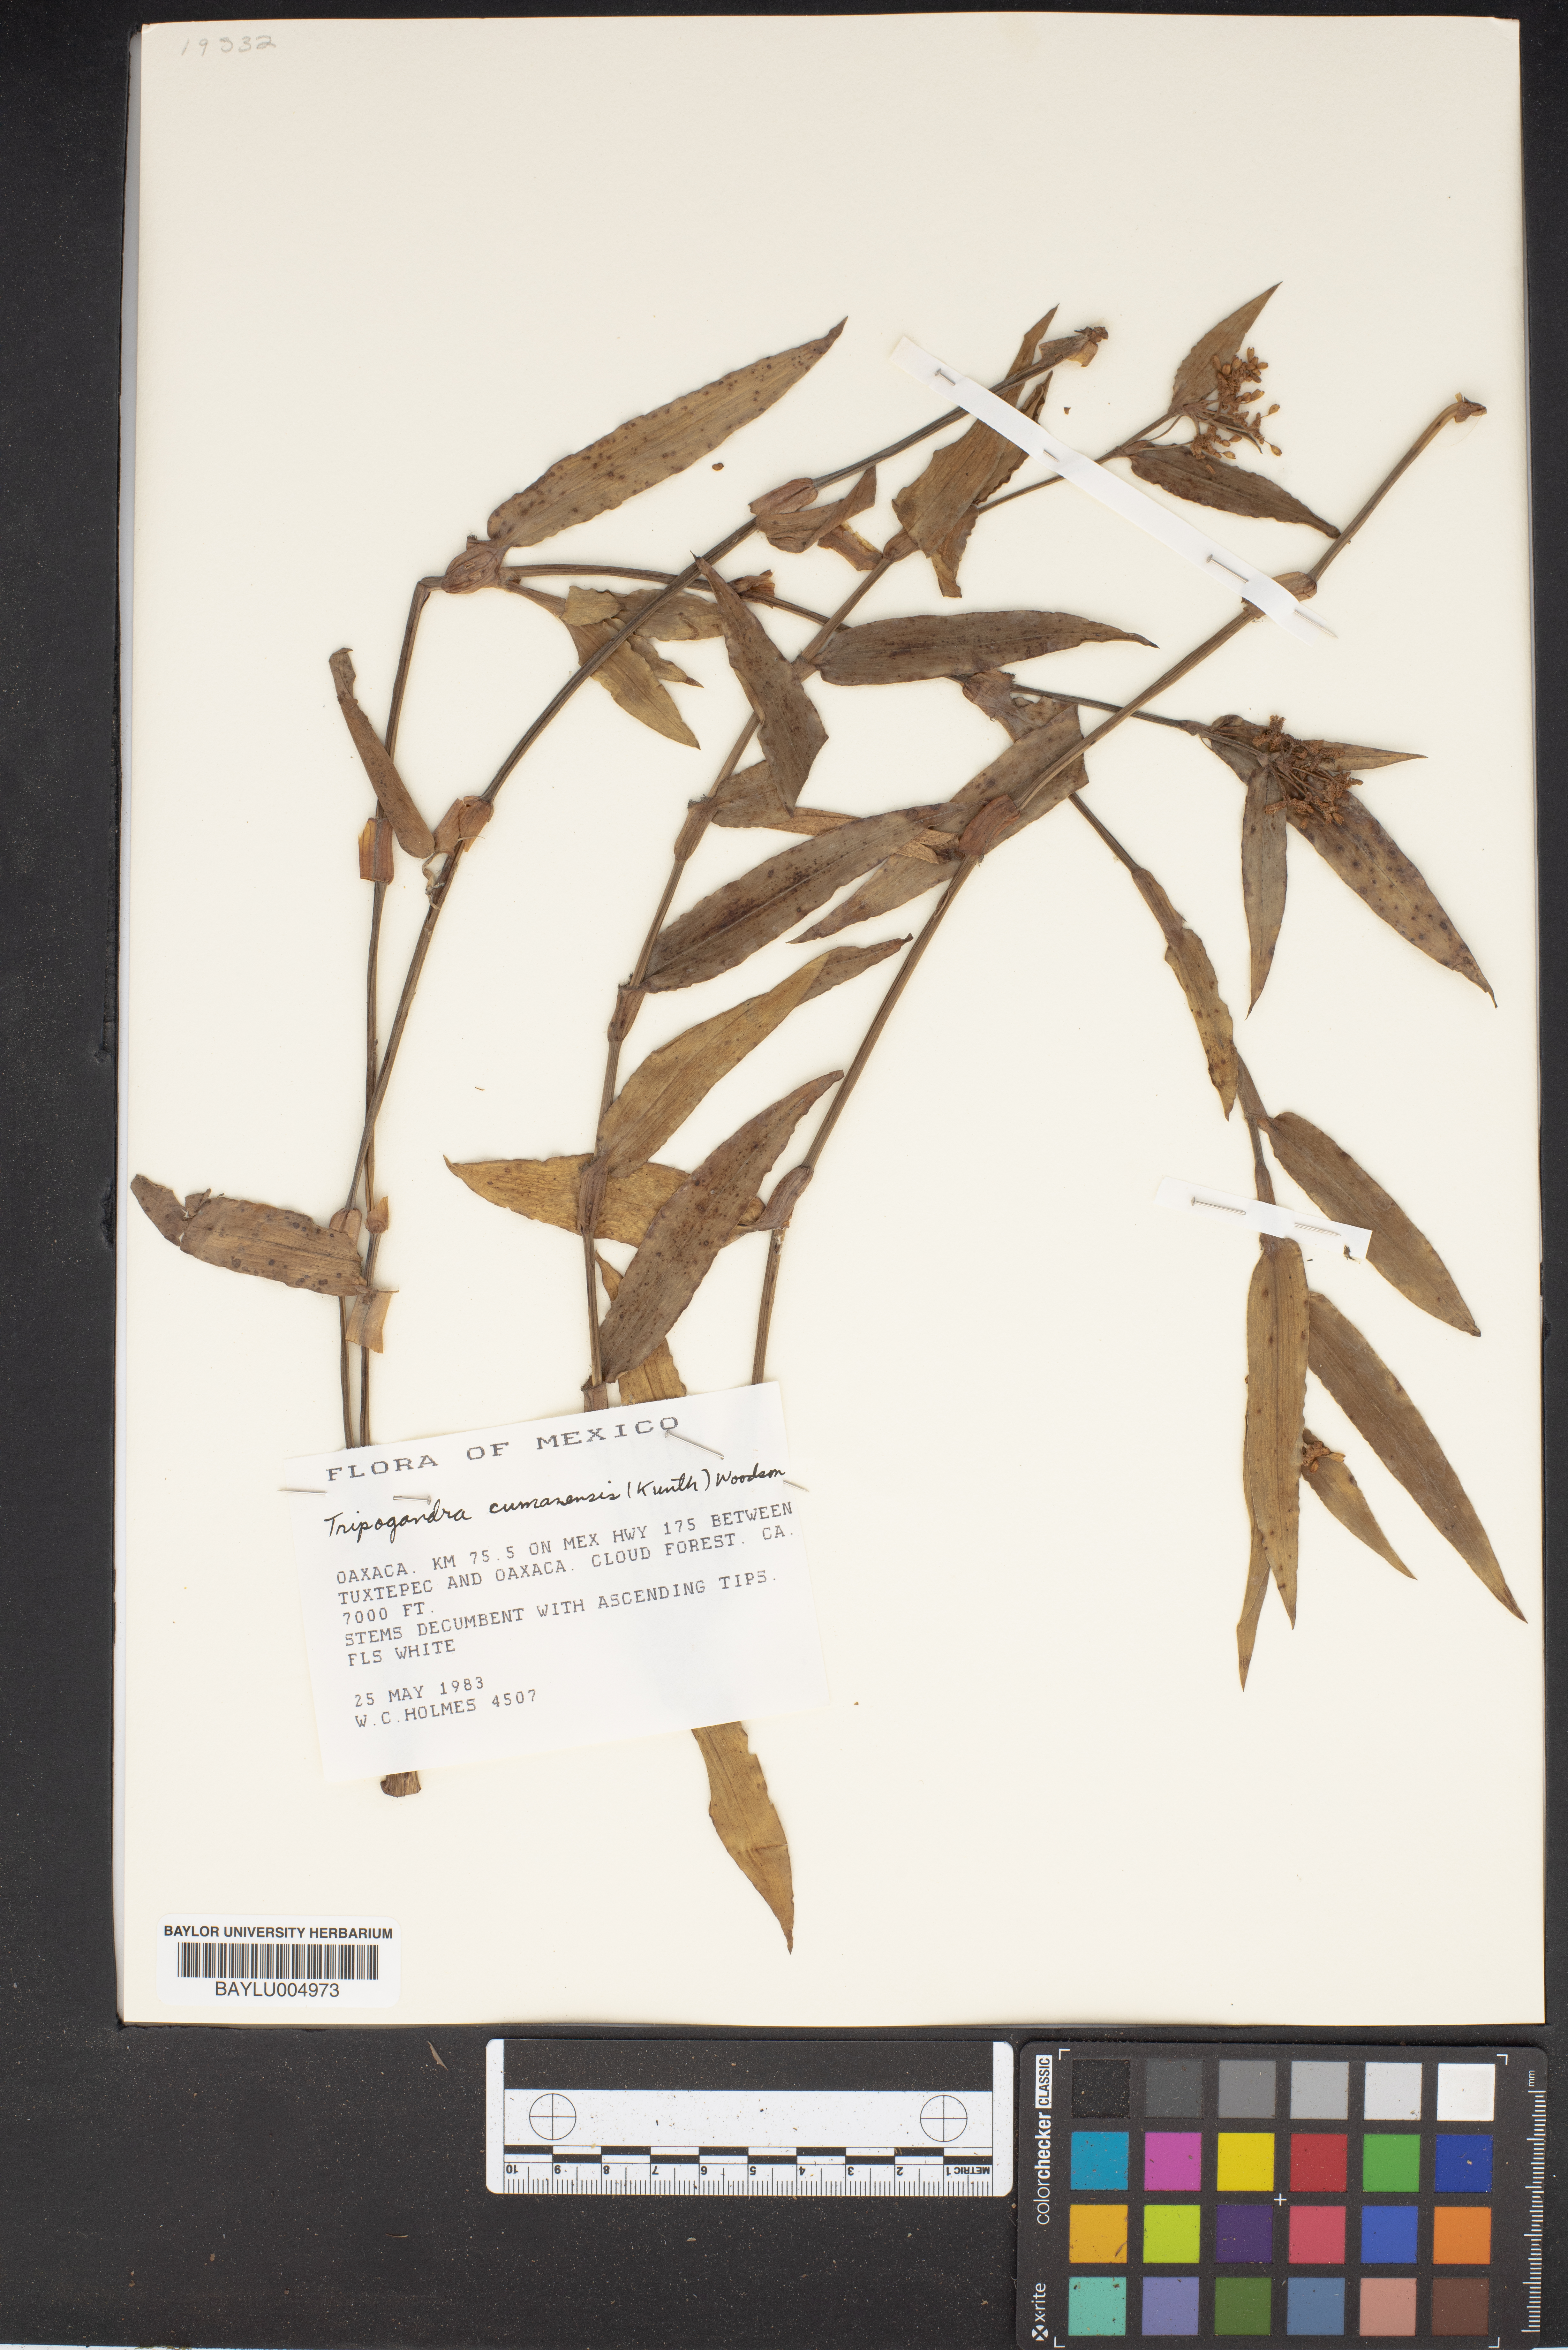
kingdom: Plantae
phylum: Tracheophyta
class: Liliopsida
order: Commelinales
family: Commelinaceae
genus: Callisia
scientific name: Callisia serrulata
